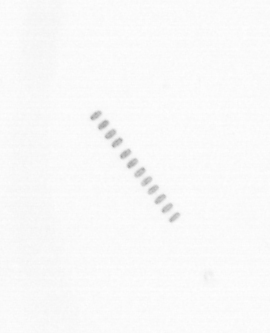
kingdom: Chromista
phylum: Ochrophyta
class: Bacillariophyceae
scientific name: Bacillariophyceae
